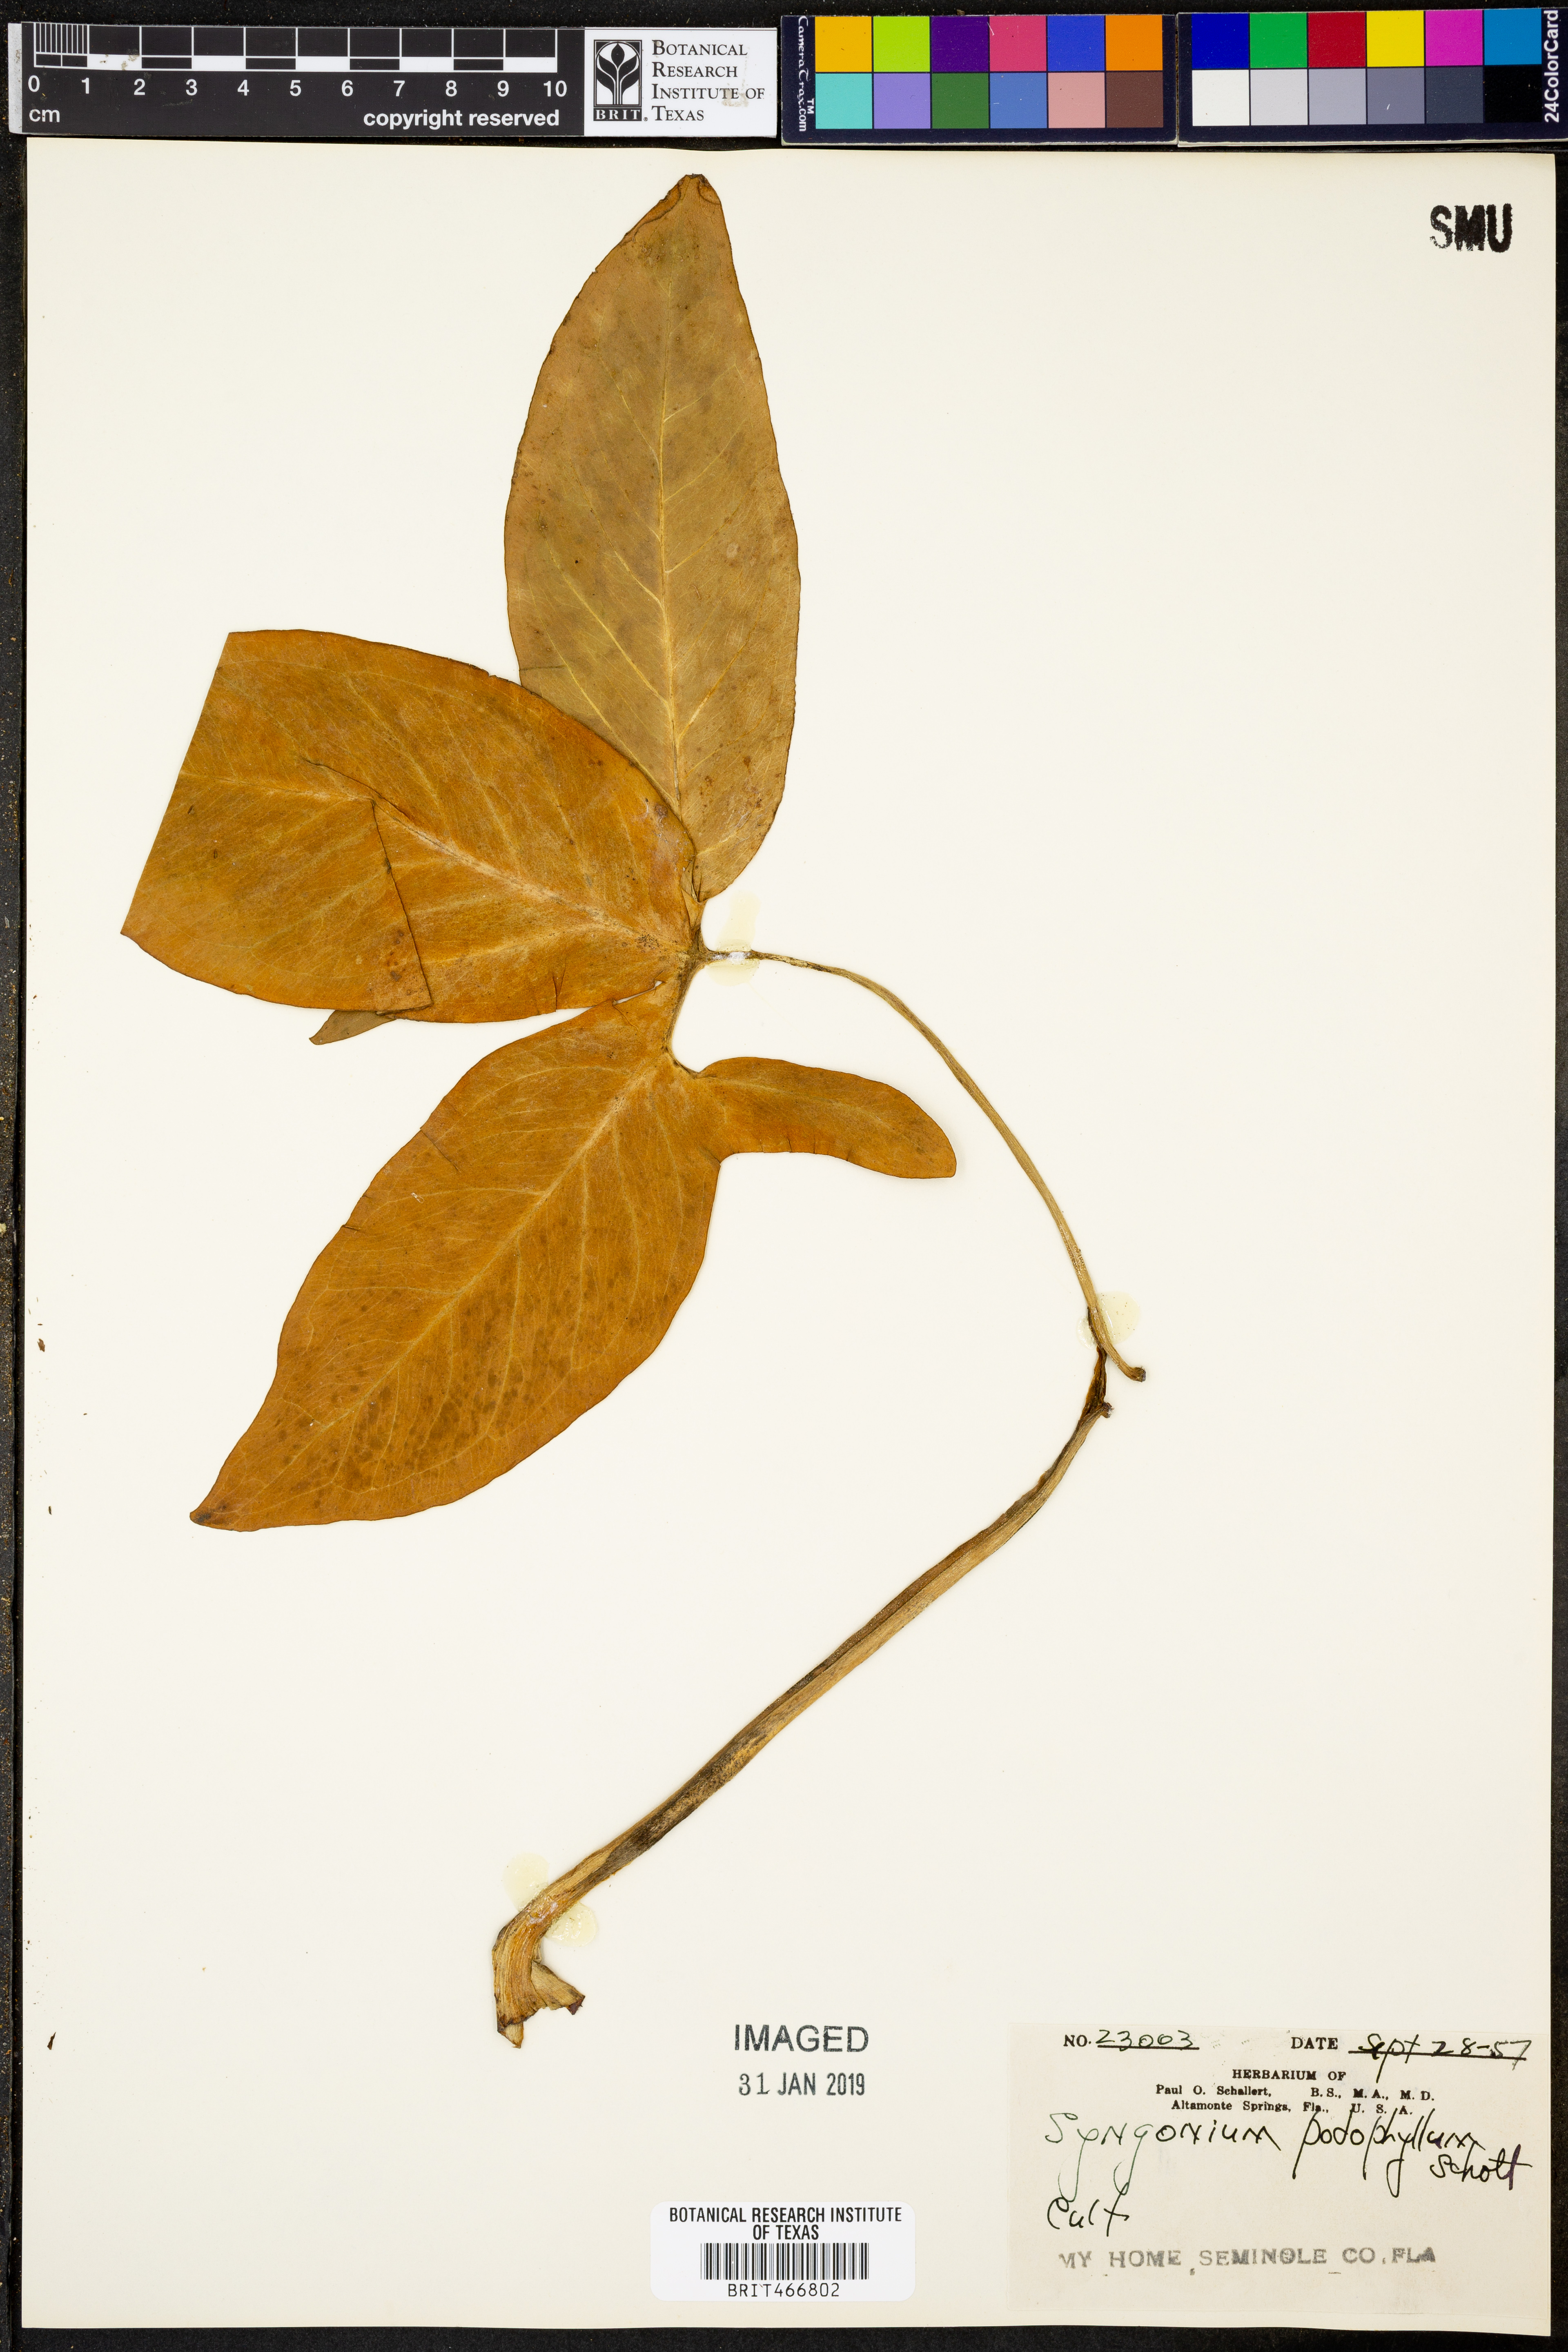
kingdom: Plantae
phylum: Tracheophyta
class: Liliopsida
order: Alismatales
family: Araceae
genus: Syngonium
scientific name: Syngonium podophyllum
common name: American evergreen
